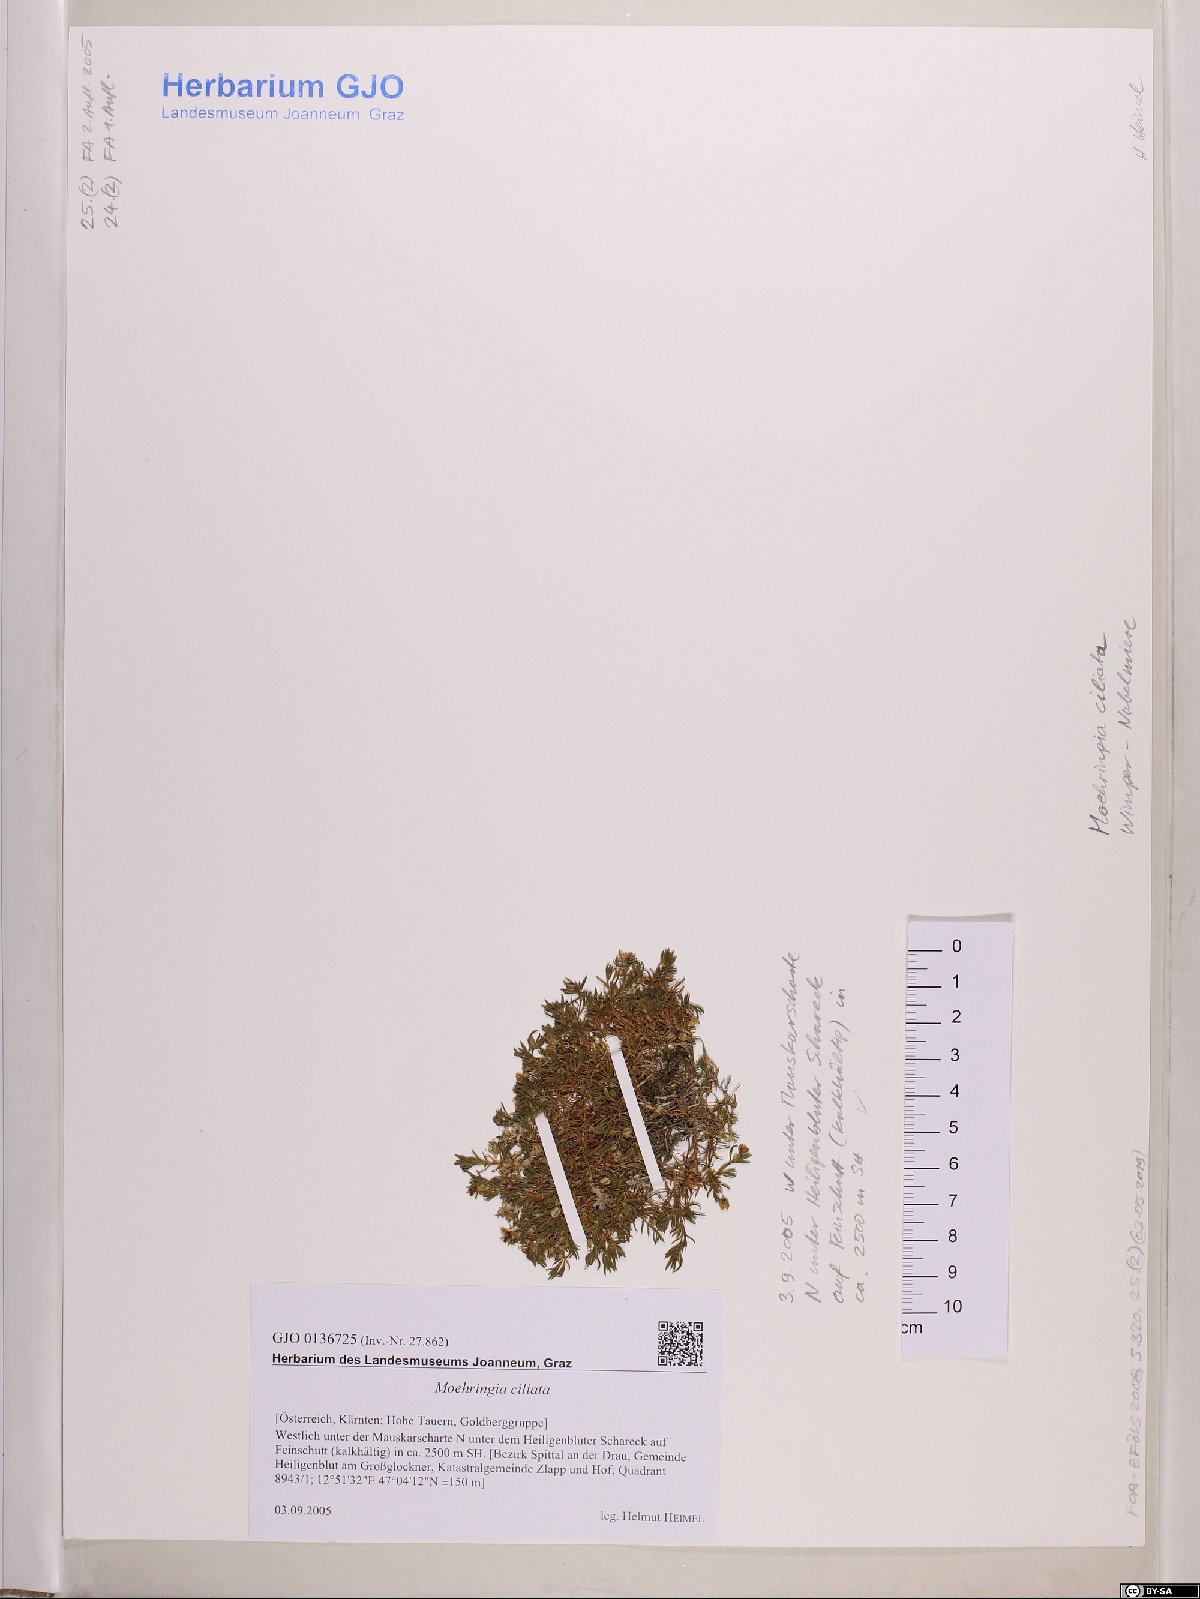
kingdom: Plantae
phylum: Tracheophyta
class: Magnoliopsida
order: Caryophyllales
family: Caryophyllaceae
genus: Moehringia
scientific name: Moehringia ciliata
